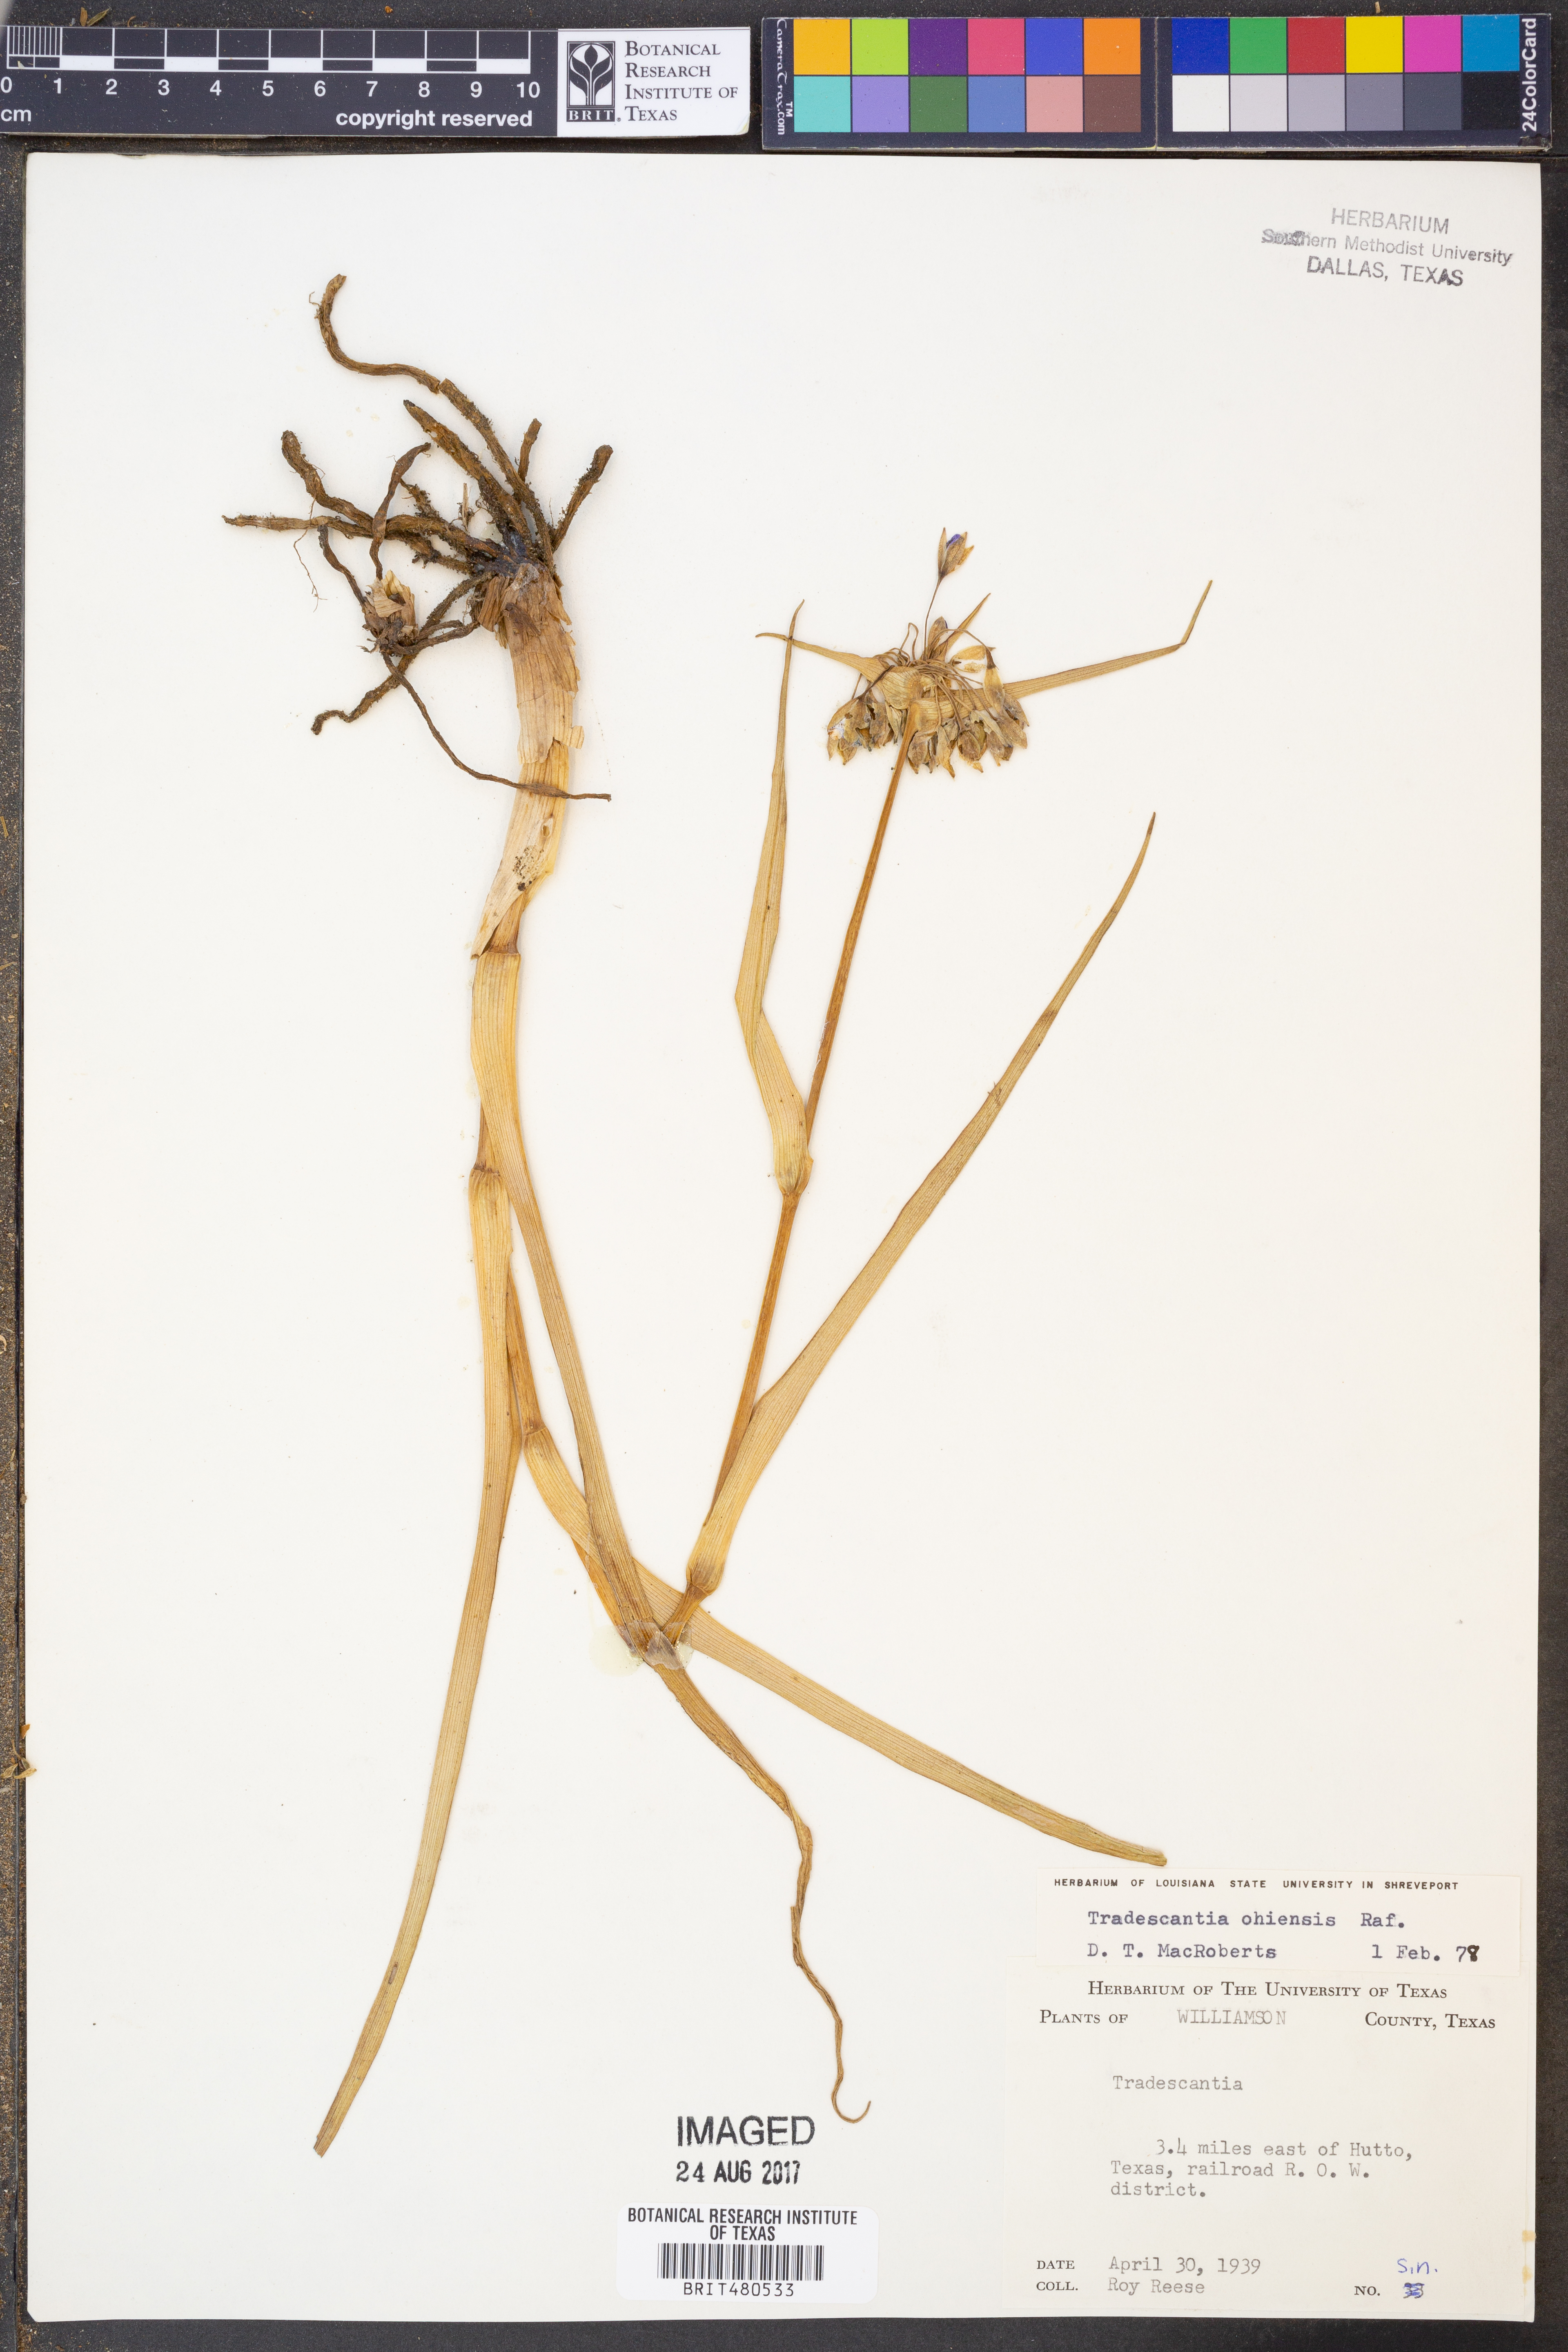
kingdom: Plantae
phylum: Tracheophyta
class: Liliopsida
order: Commelinales
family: Commelinaceae
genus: Tradescantia
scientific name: Tradescantia ohiensis
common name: Ohio spiderwort
